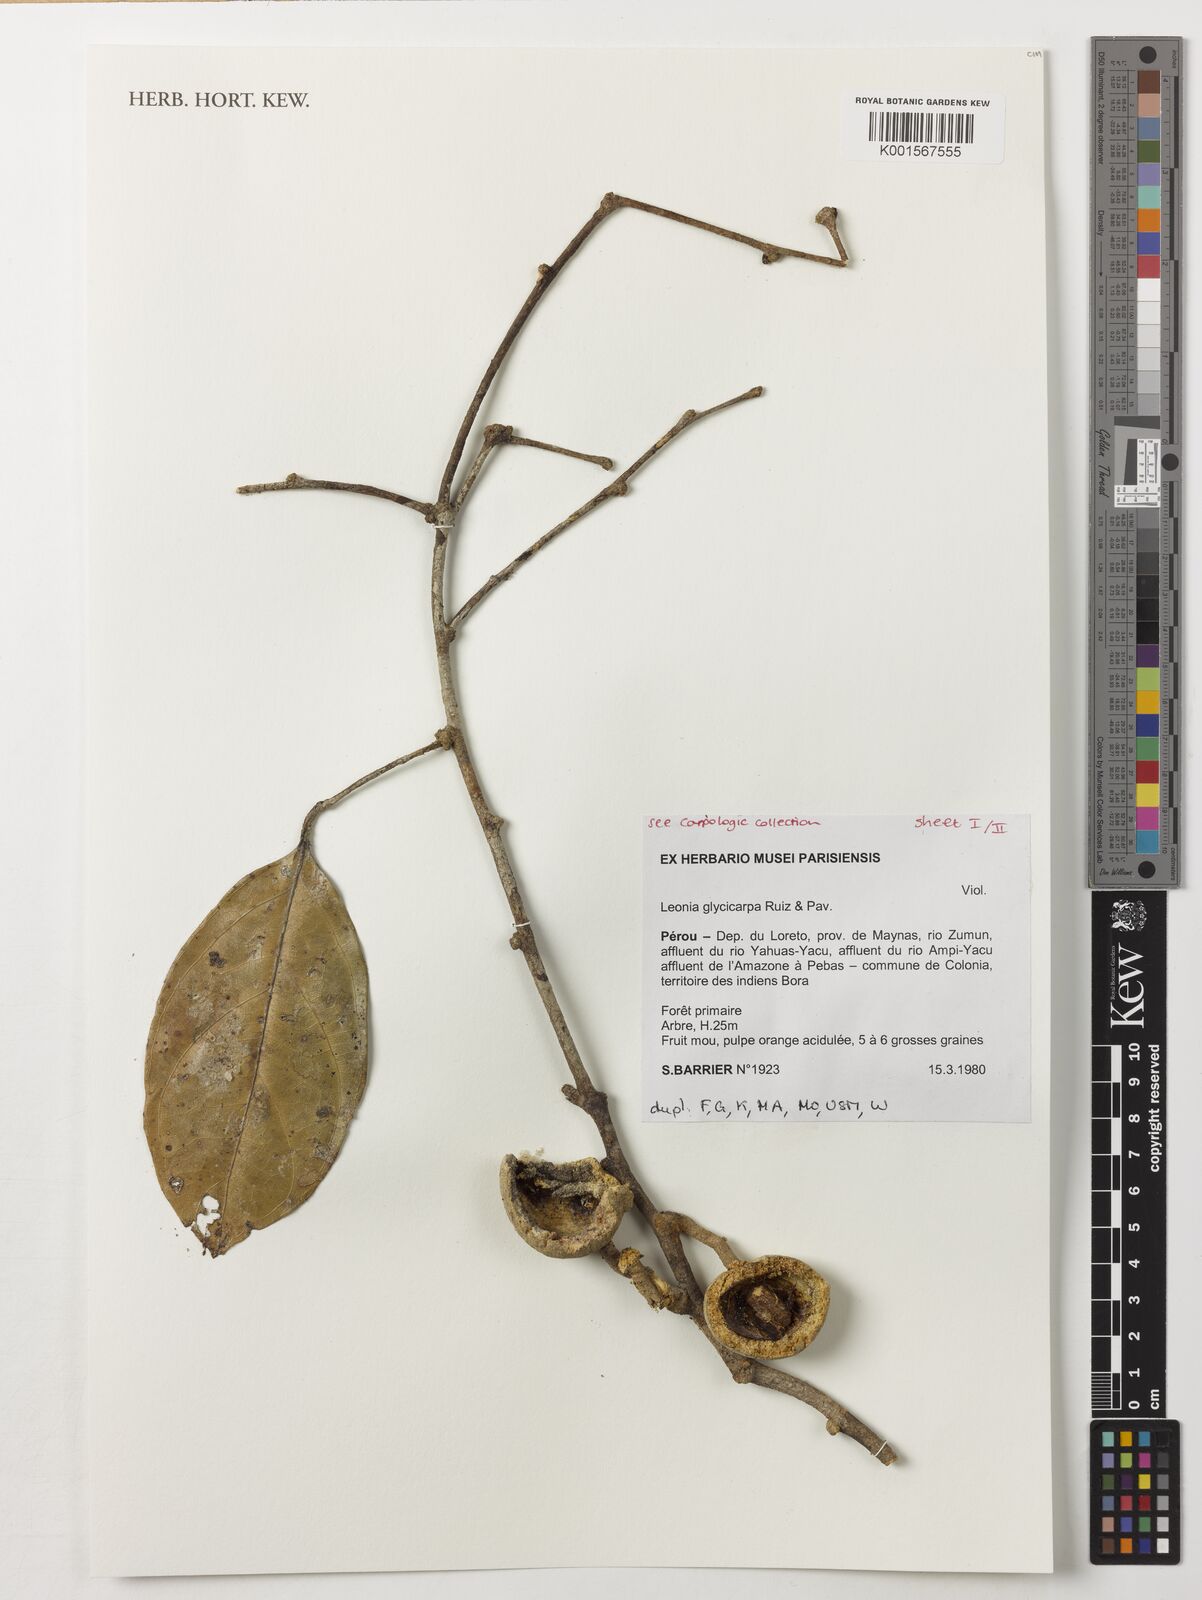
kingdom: Plantae
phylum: Tracheophyta
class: Magnoliopsida
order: Malpighiales
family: Violaceae
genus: Leonia
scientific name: Leonia glycycarpa
